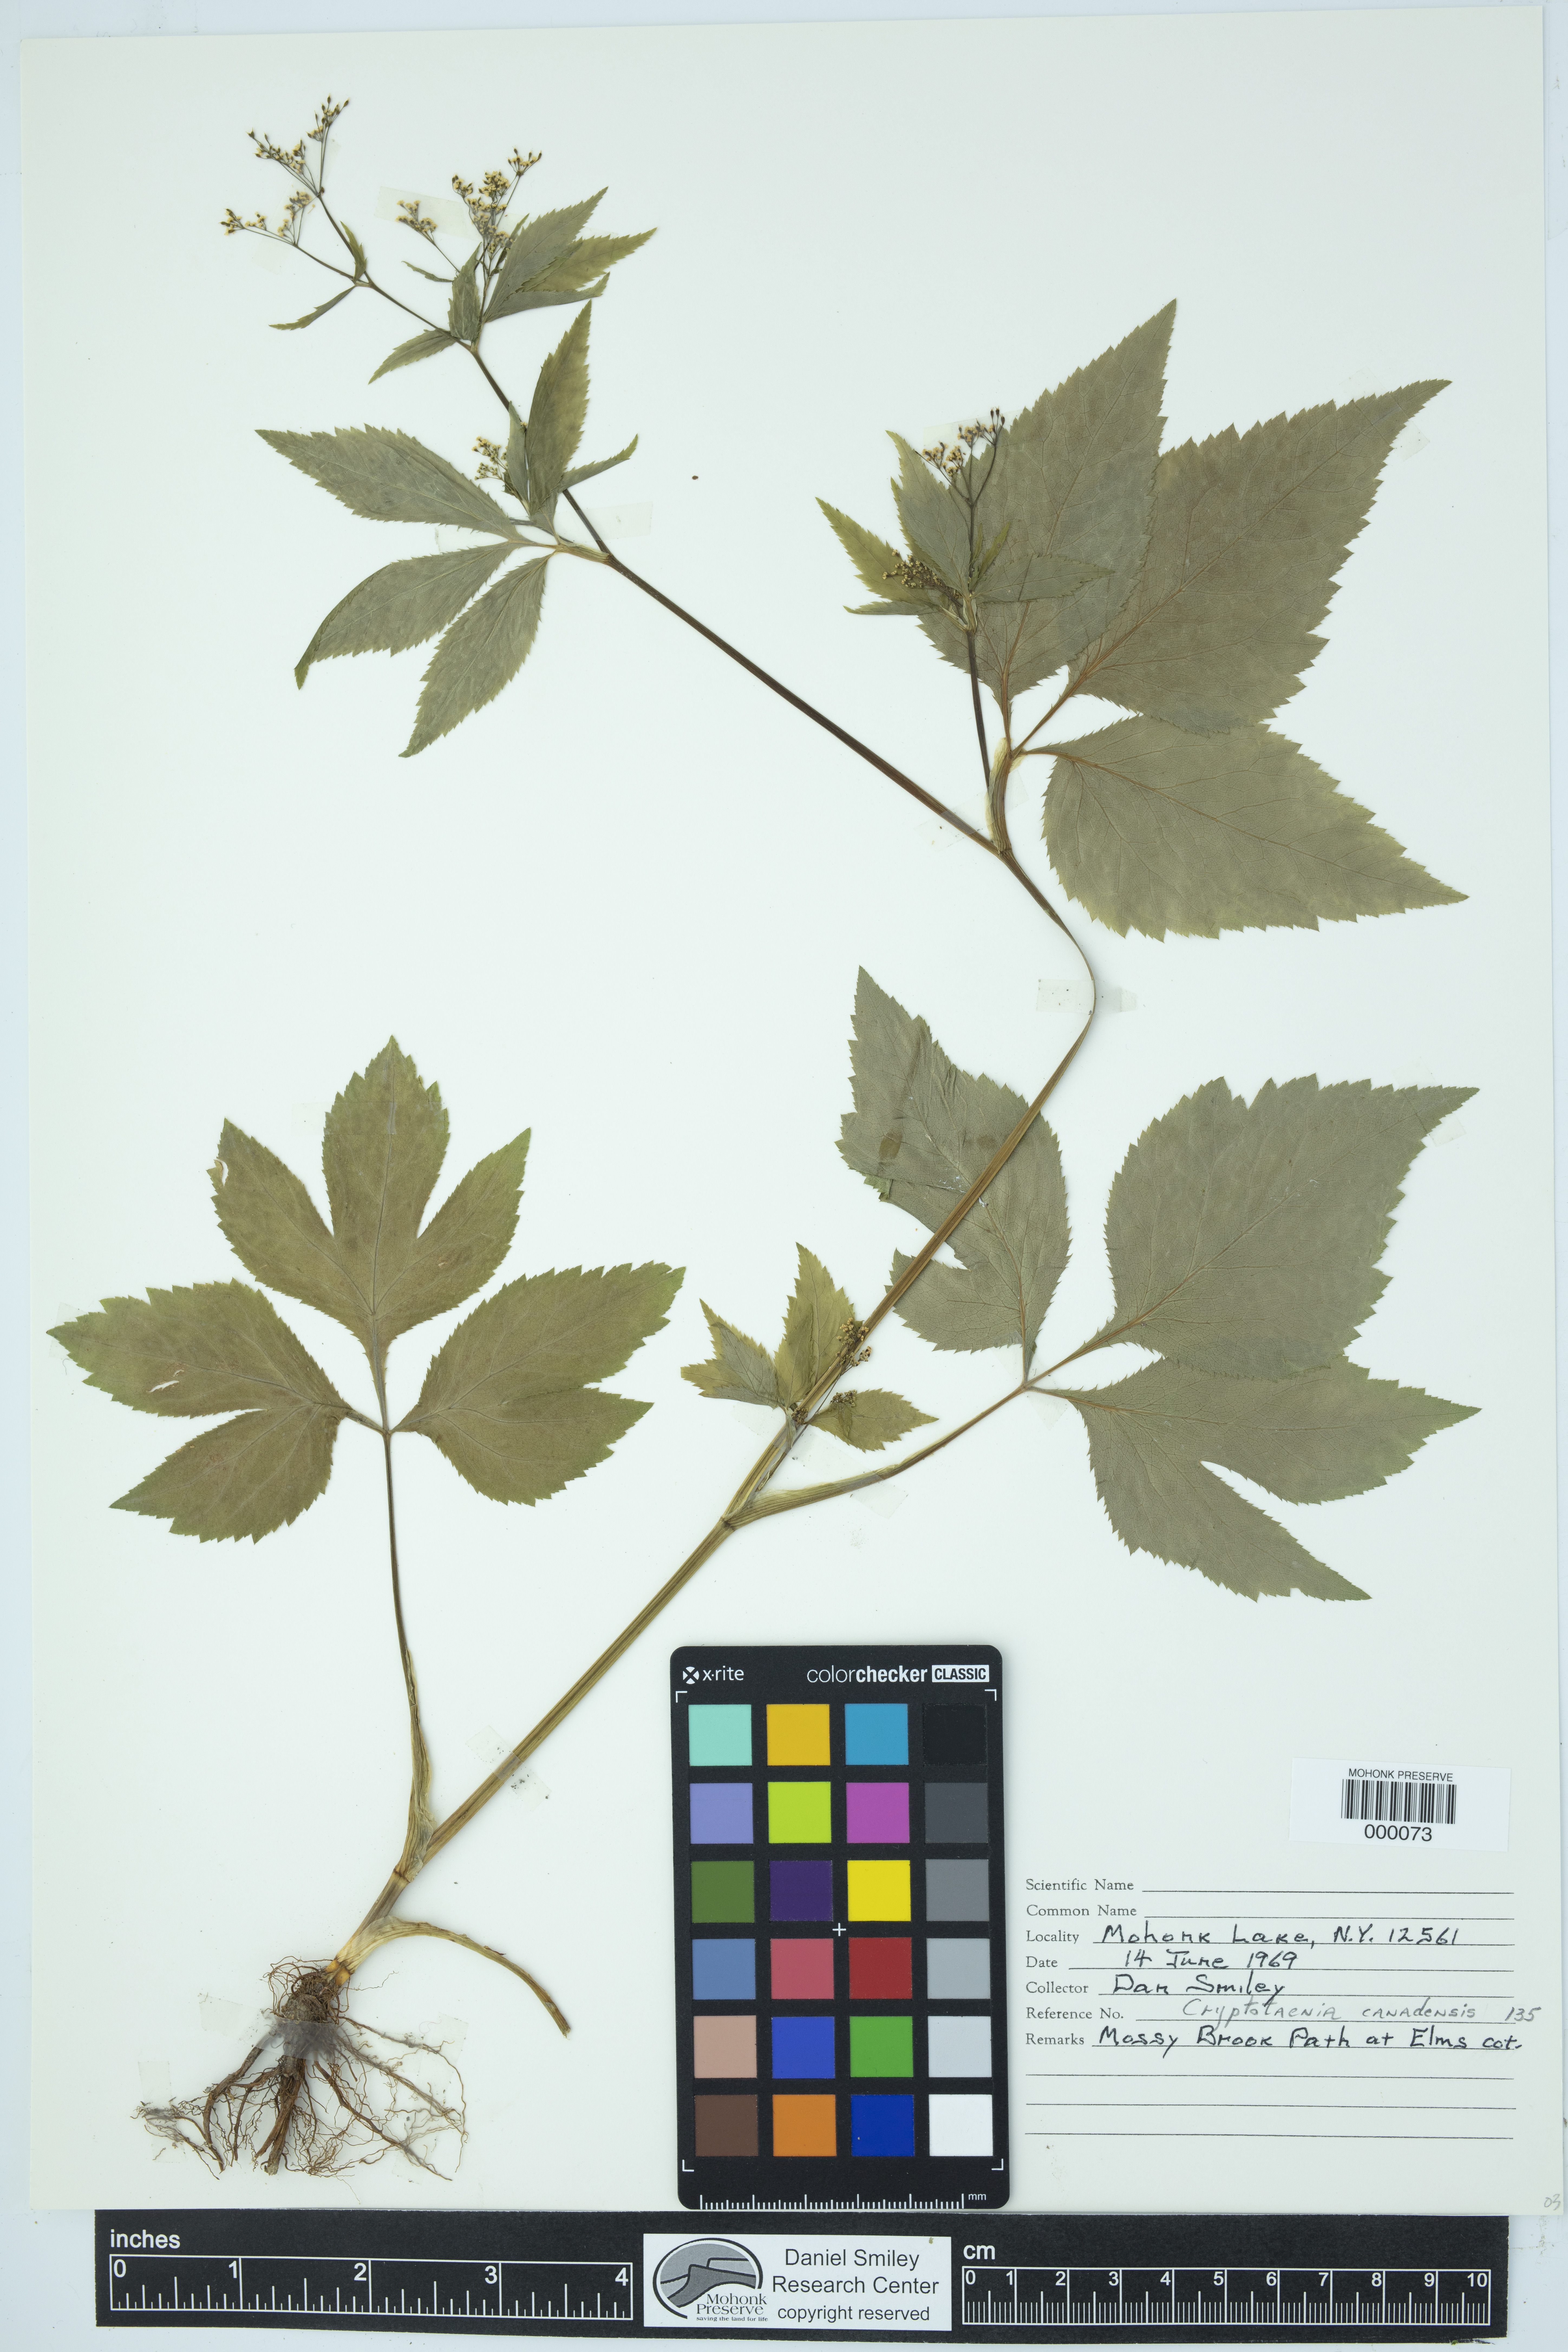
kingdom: Plantae
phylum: Tracheophyta
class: Magnoliopsida
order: Apiales
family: Apiaceae
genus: Cryptotaenia
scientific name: Cryptotaenia canadensis
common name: Honewort
